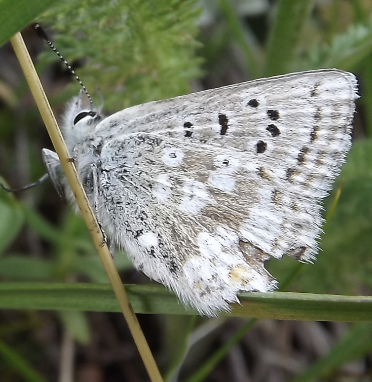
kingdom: Animalia
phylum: Arthropoda
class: Insecta
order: Lepidoptera
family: Lycaenidae
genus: Agriades
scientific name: Agriades glandon
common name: Arctic Blue
